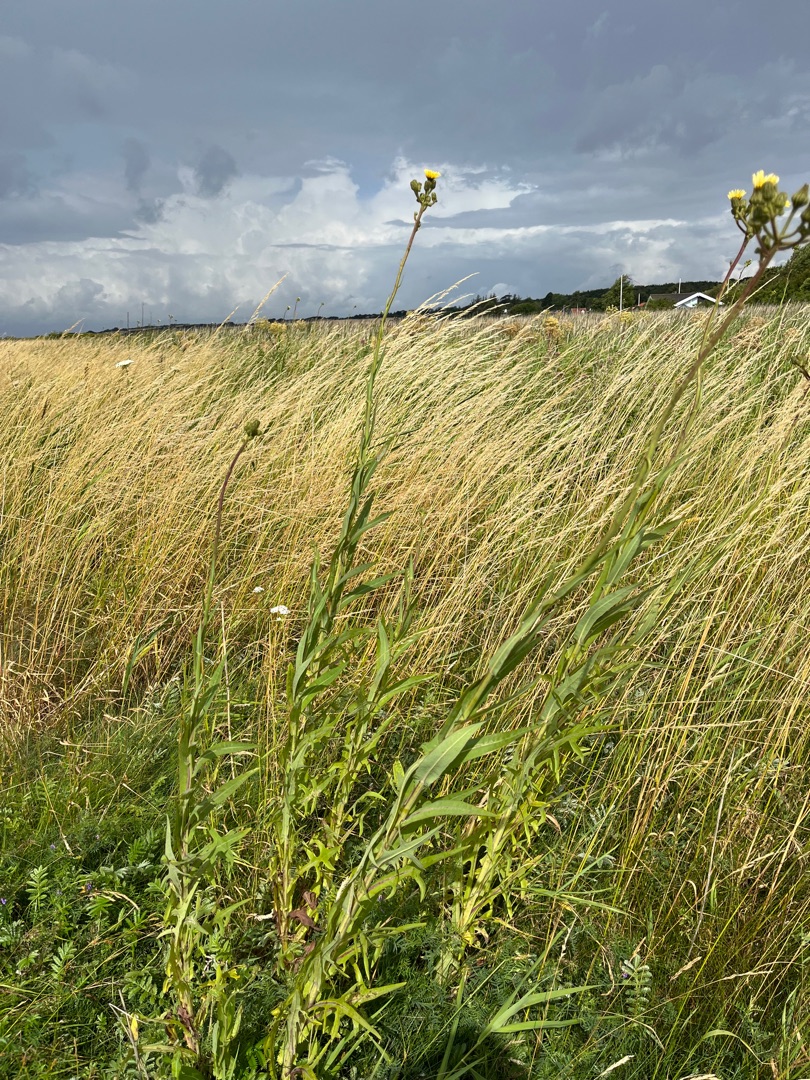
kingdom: Plantae
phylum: Tracheophyta
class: Magnoliopsida
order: Asterales
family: Asteraceae
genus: Sonchus
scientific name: Sonchus palustris
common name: Kær-svinemælk
